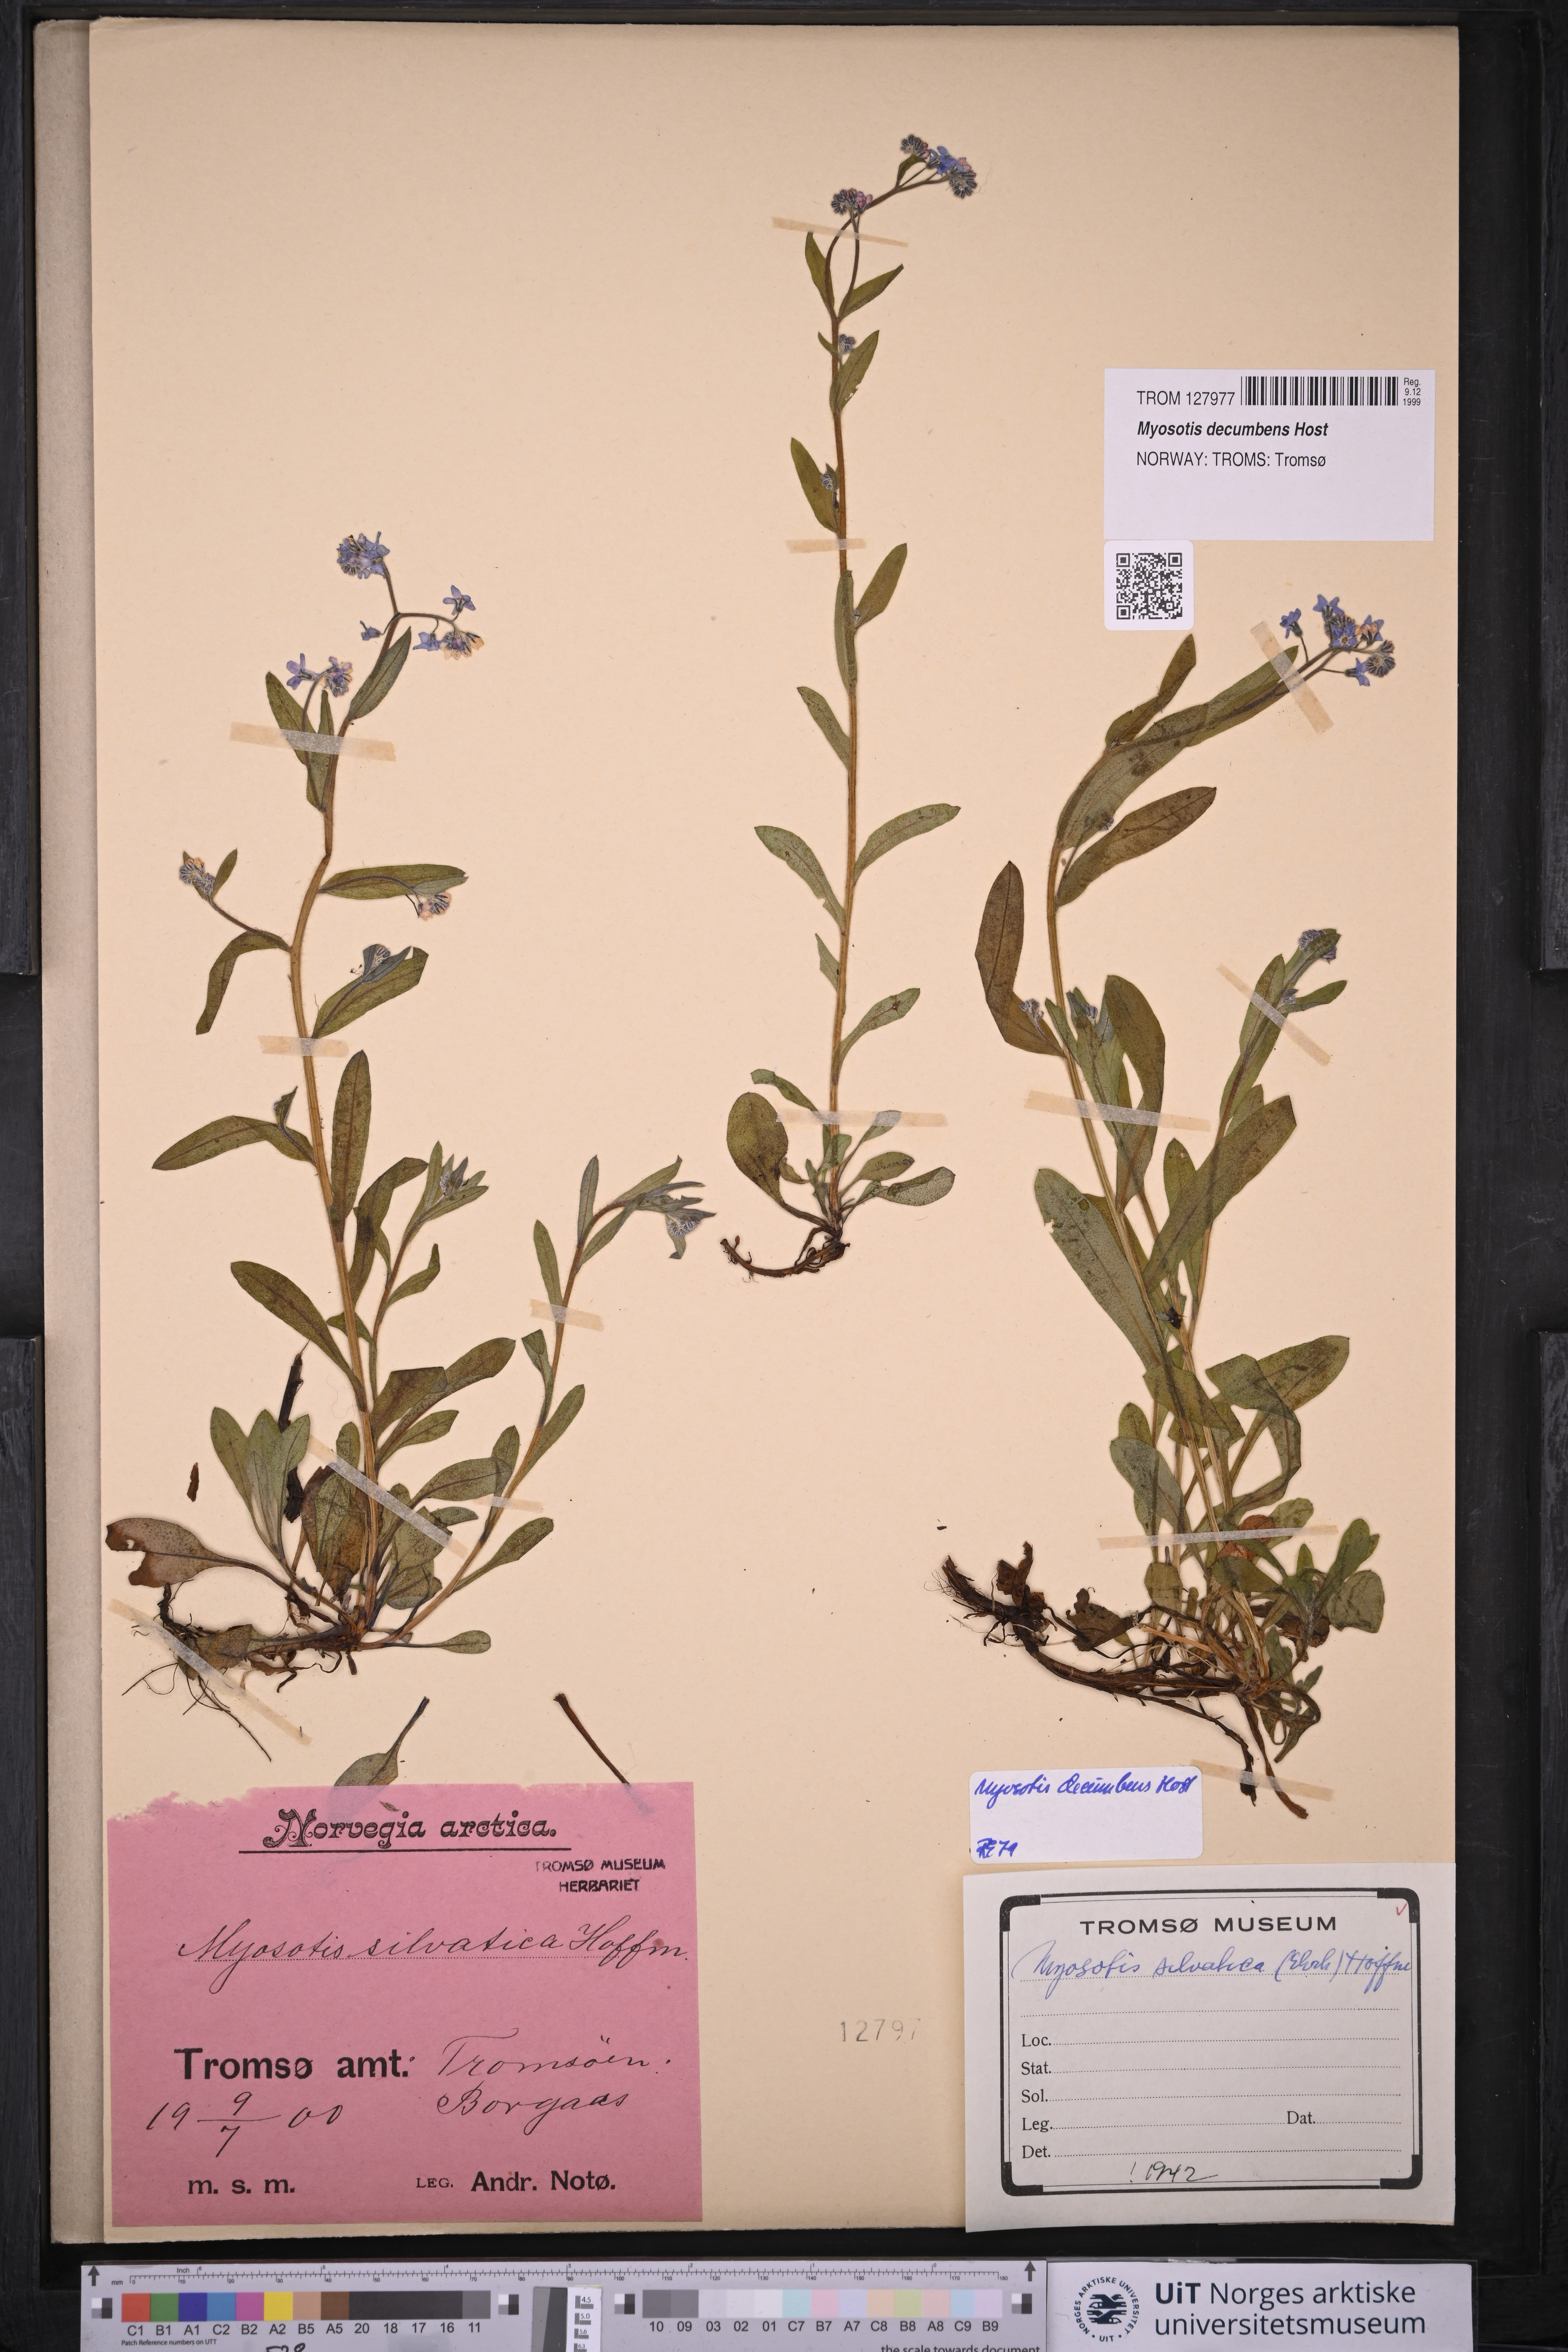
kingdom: Plantae
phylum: Tracheophyta
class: Magnoliopsida
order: Boraginales
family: Boraginaceae
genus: Myosotis
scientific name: Myosotis decumbens
